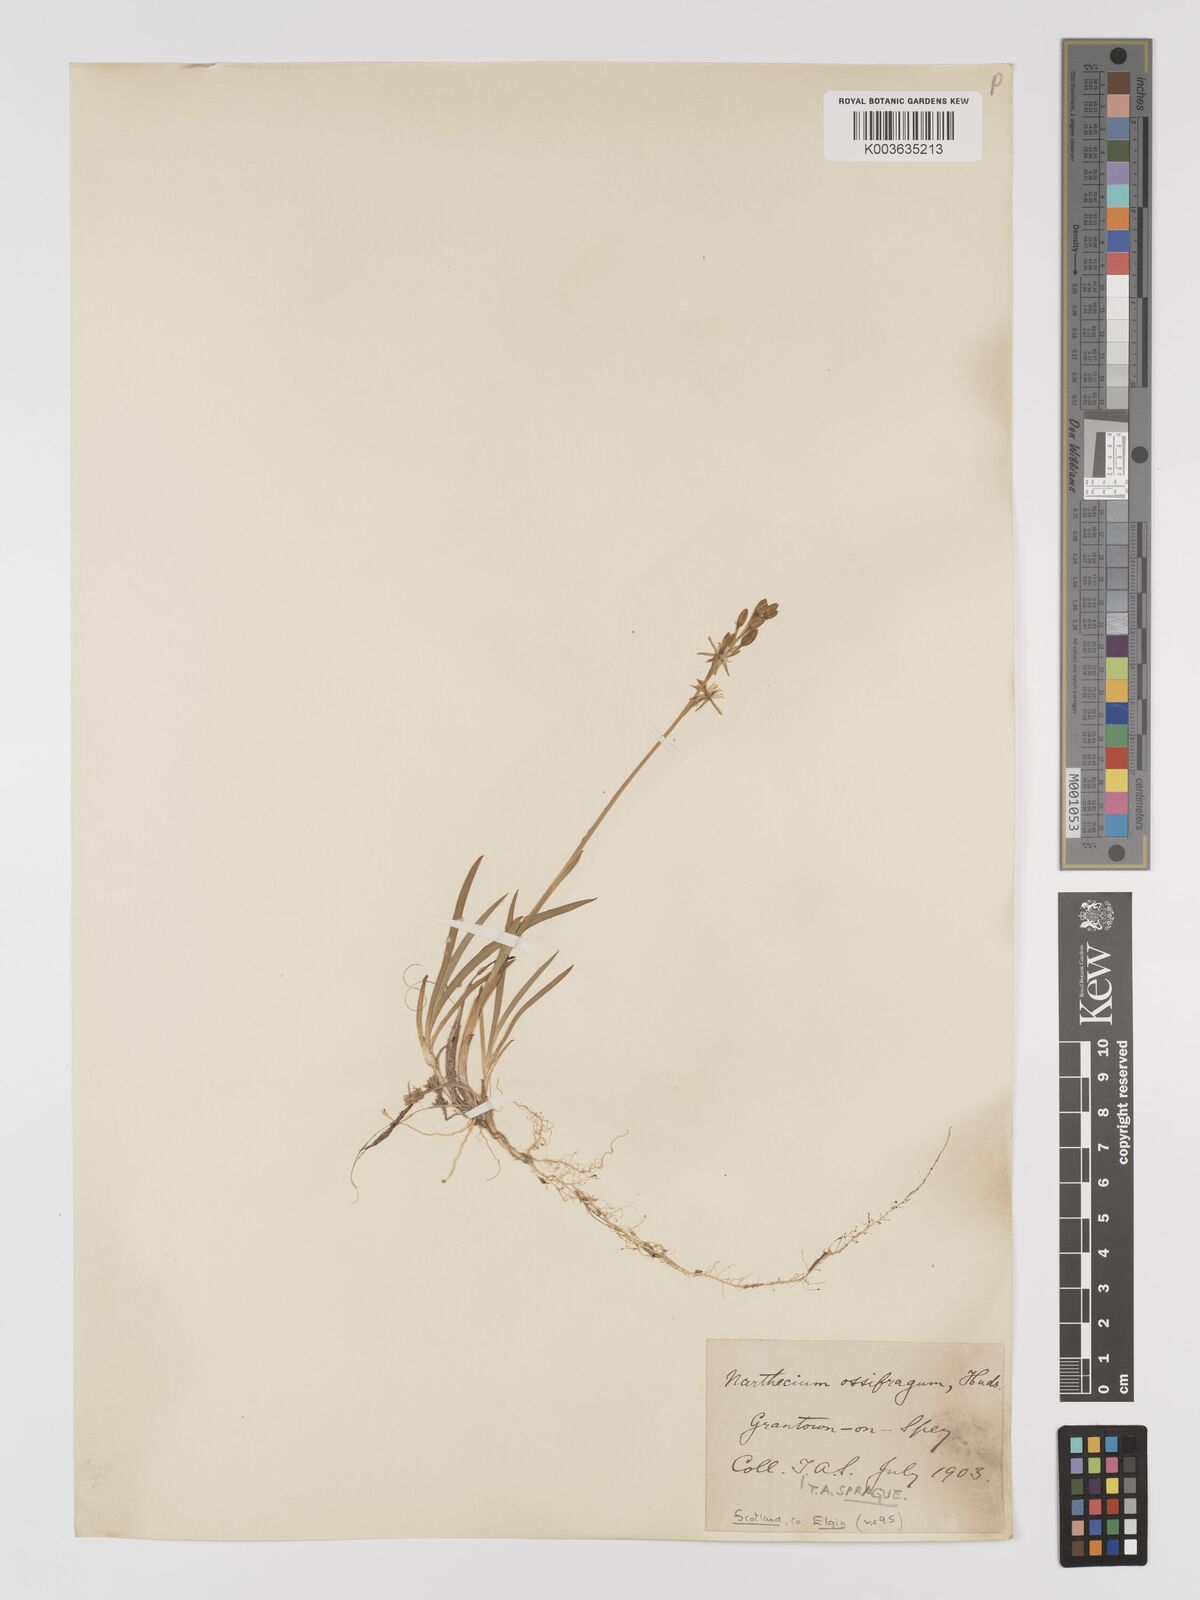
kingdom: Plantae
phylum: Tracheophyta
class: Liliopsida
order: Dioscoreales
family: Nartheciaceae
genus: Narthecium
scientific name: Narthecium
